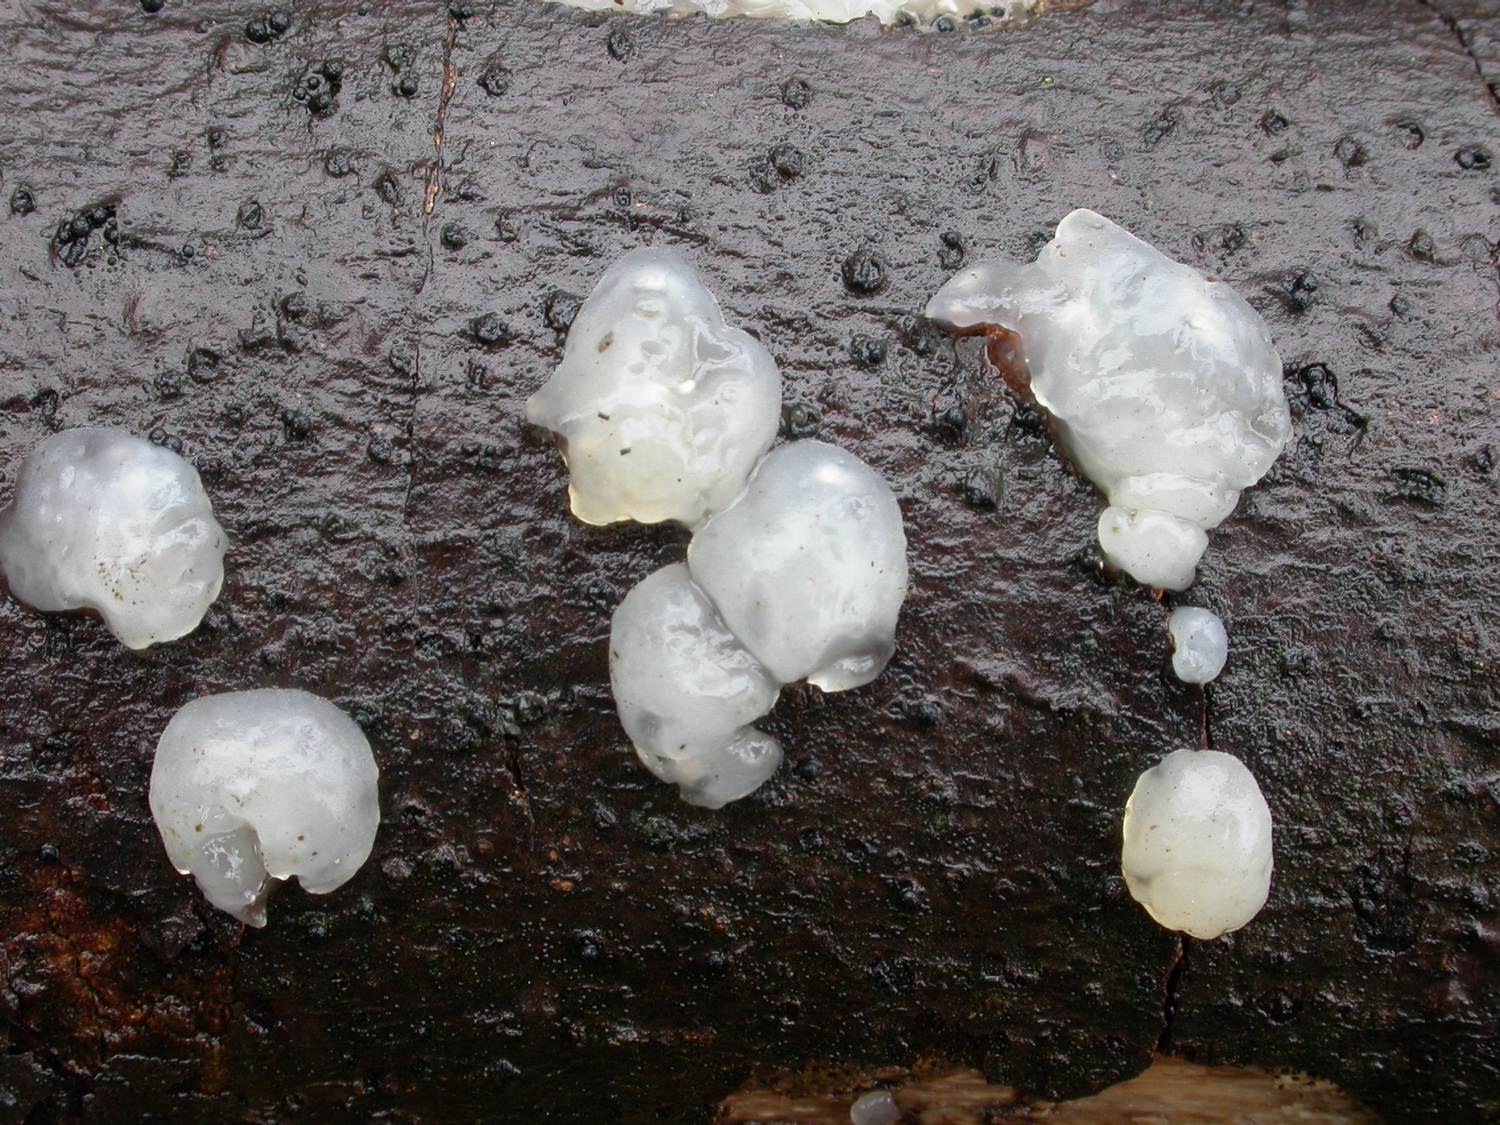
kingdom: Fungi
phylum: Basidiomycota
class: Agaricomycetes
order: Auriculariales
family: Hyaloriaceae
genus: Myxarium
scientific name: Myxarium nucleatum
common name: klar bævretop
